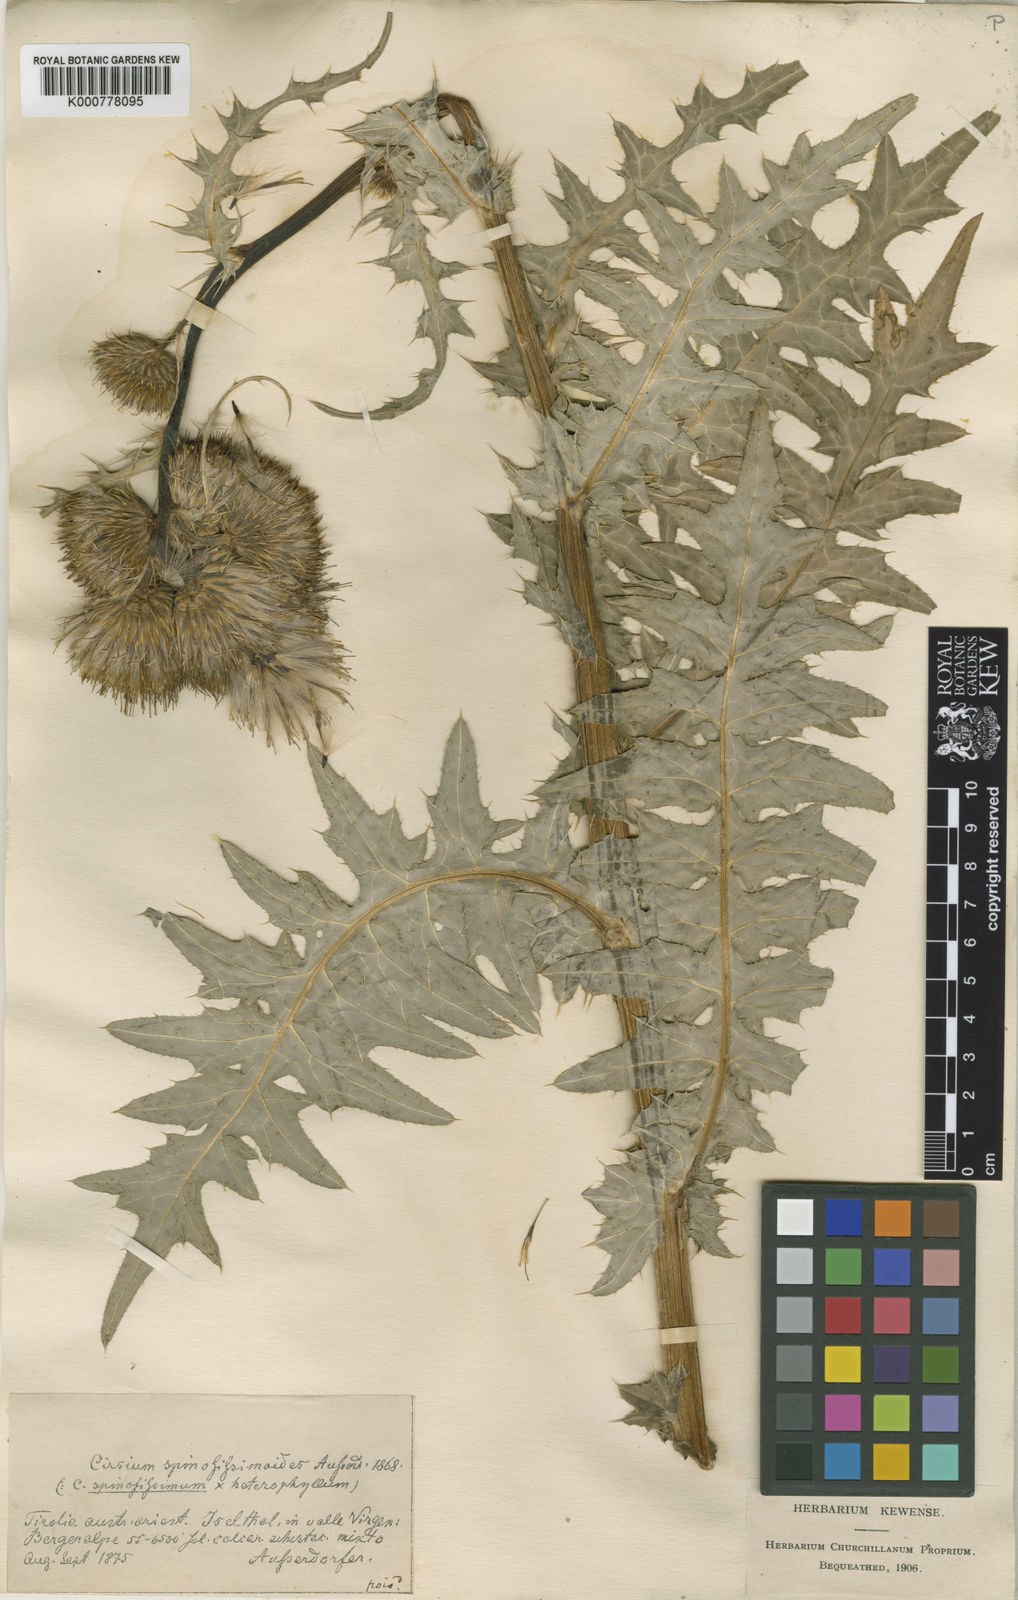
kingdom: Plantae
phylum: Tracheophyta
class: Magnoliopsida
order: Asterales
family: Asteraceae
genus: Cirsium
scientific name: Cirsium spinosissimum
